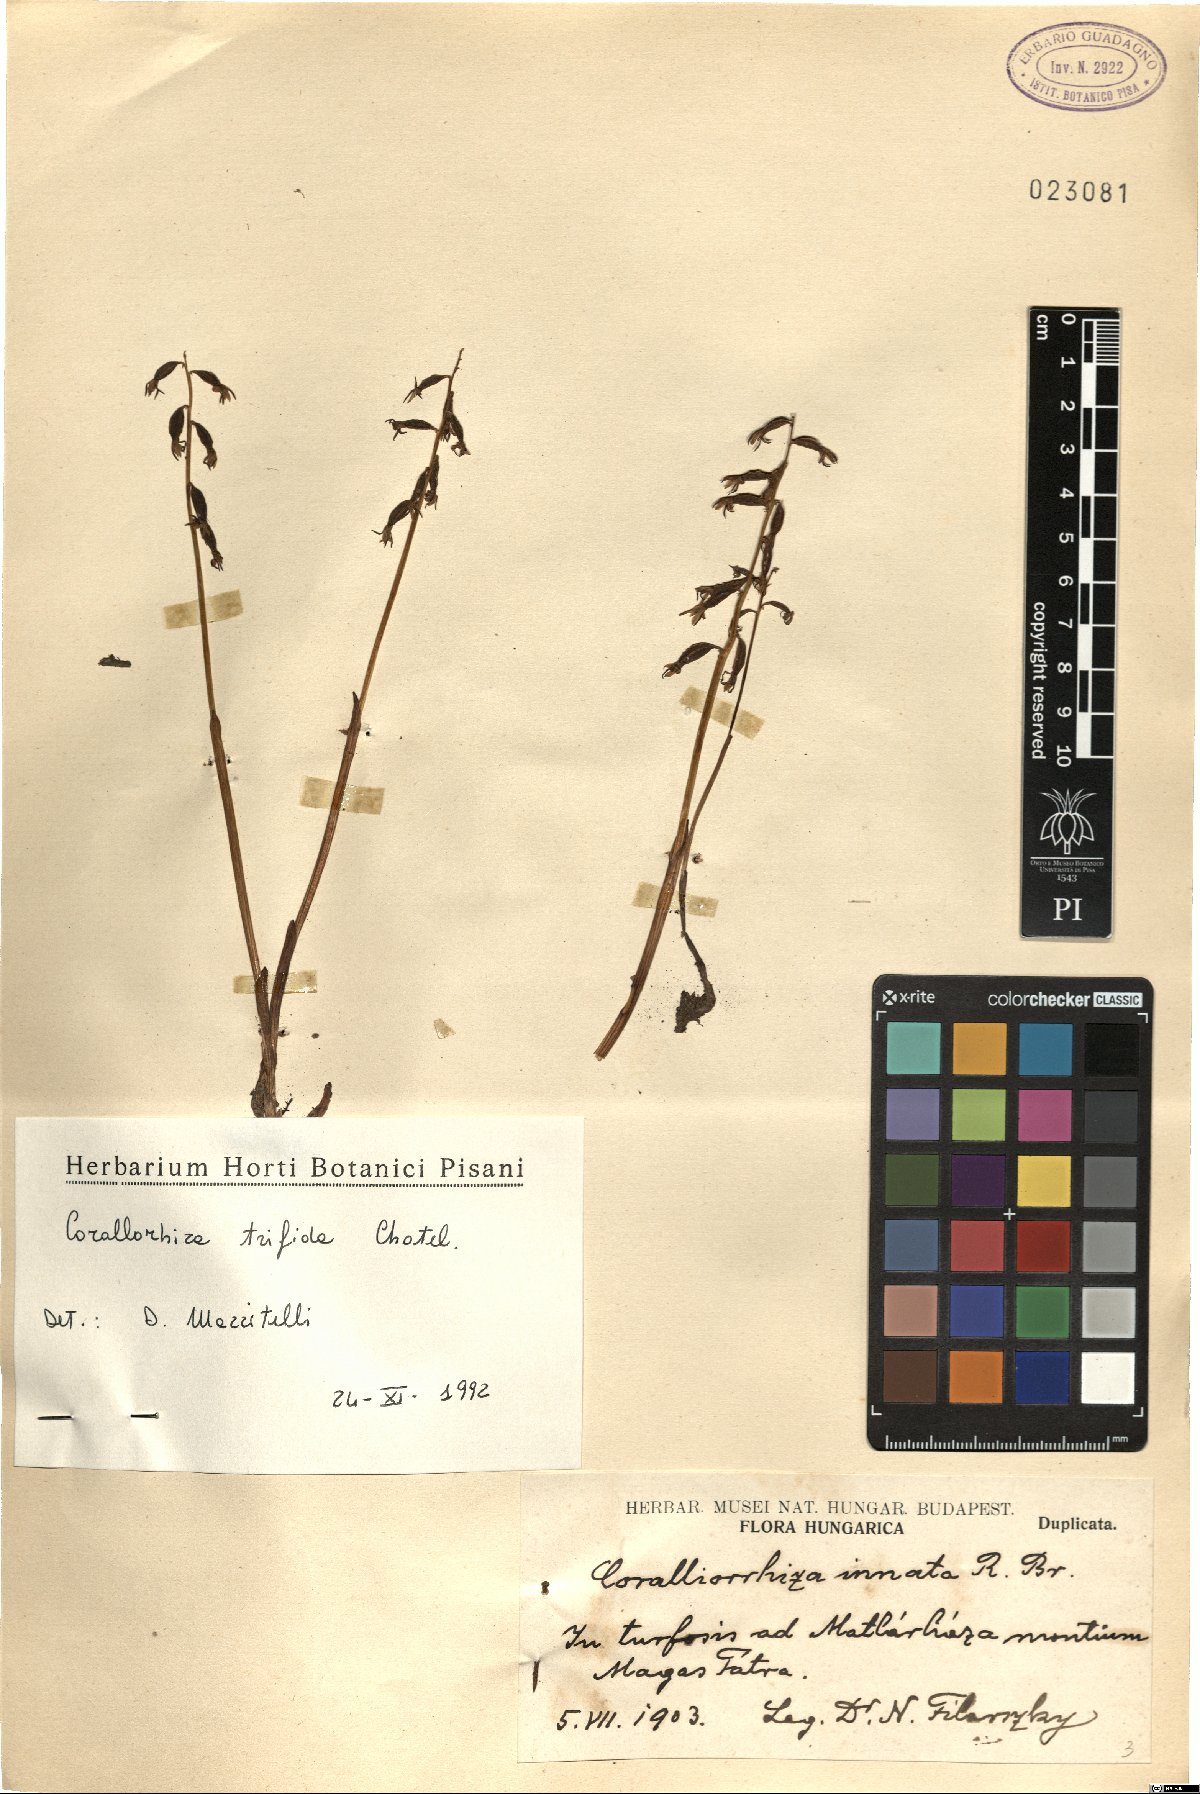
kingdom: Plantae
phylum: Tracheophyta
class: Liliopsida
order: Asparagales
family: Orchidaceae
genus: Corallorhiza
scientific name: Corallorhiza trifida
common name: Yellow coralroot
